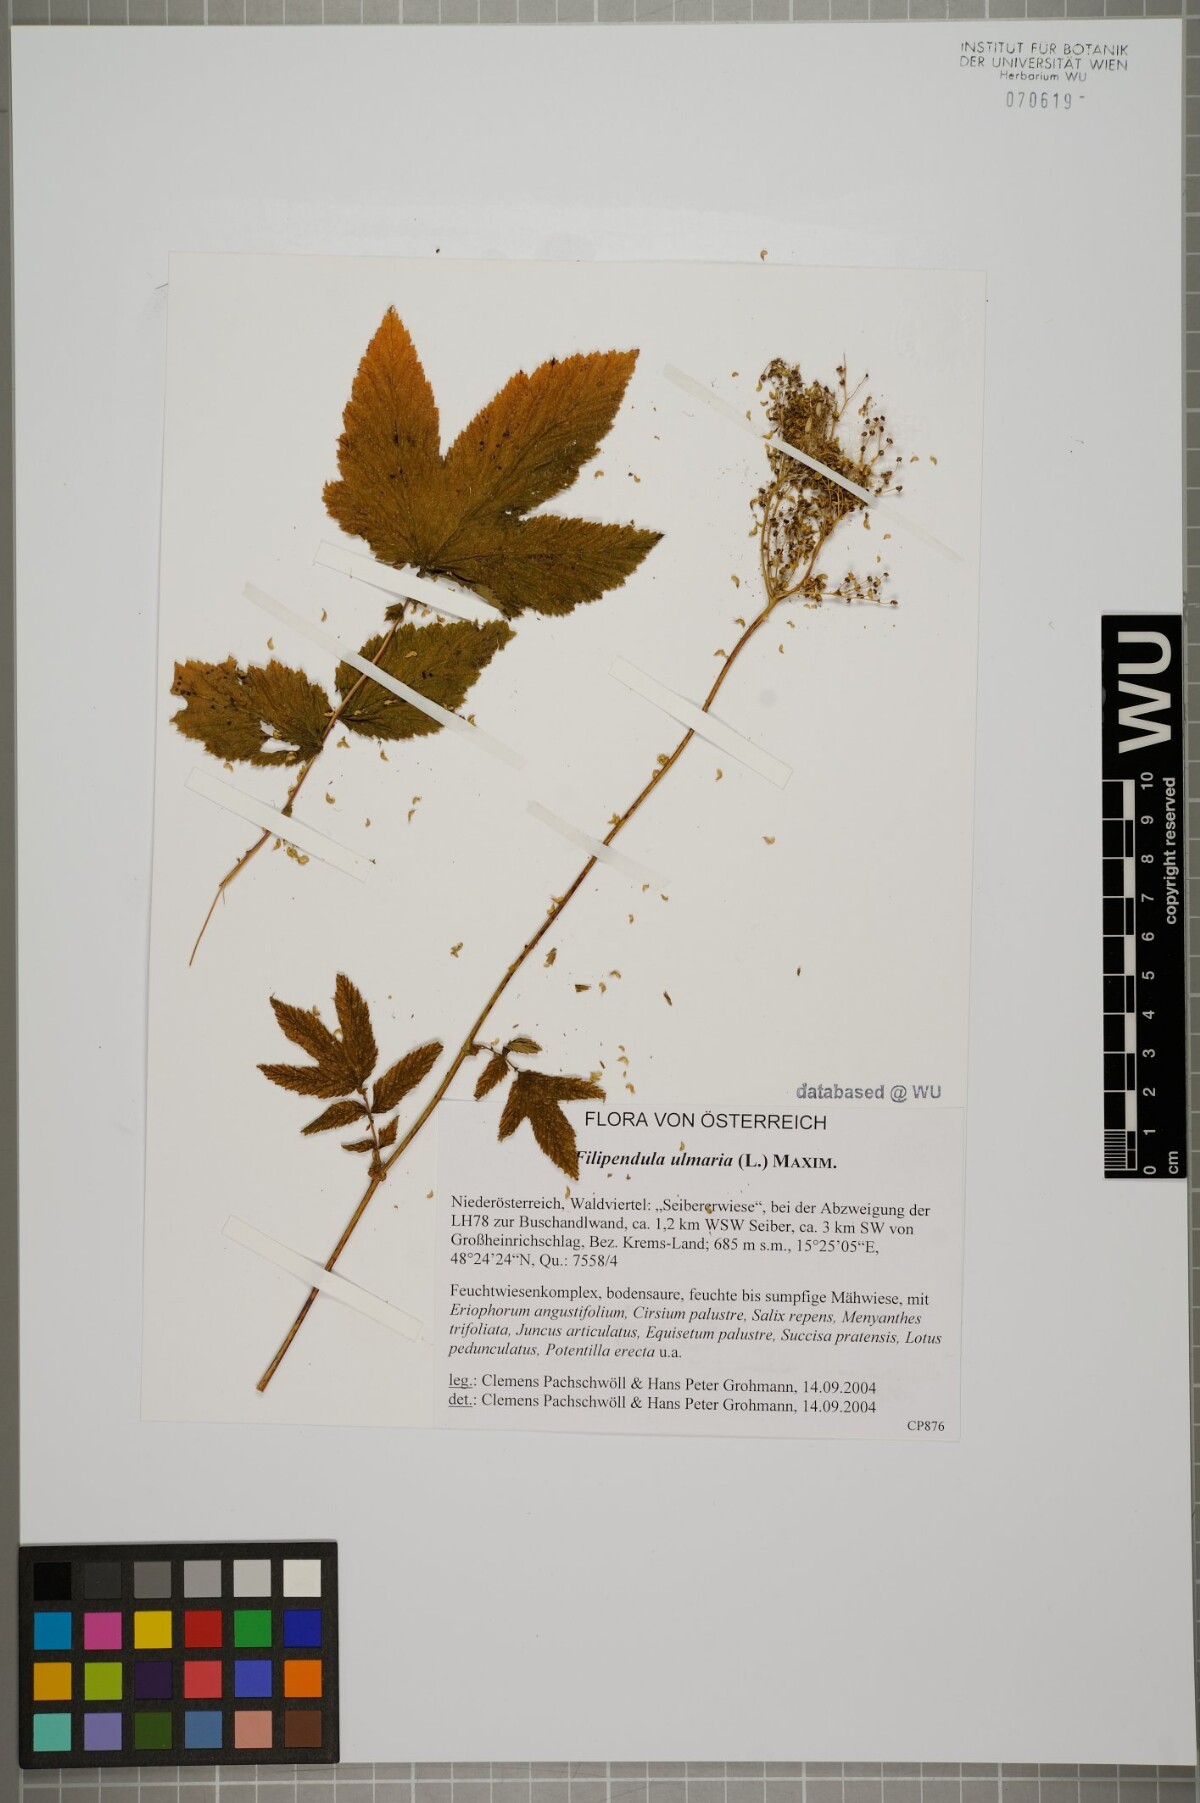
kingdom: Plantae
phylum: Tracheophyta
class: Magnoliopsida
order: Rosales
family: Rosaceae
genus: Filipendula
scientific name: Filipendula ulmaria
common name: Meadowsweet
